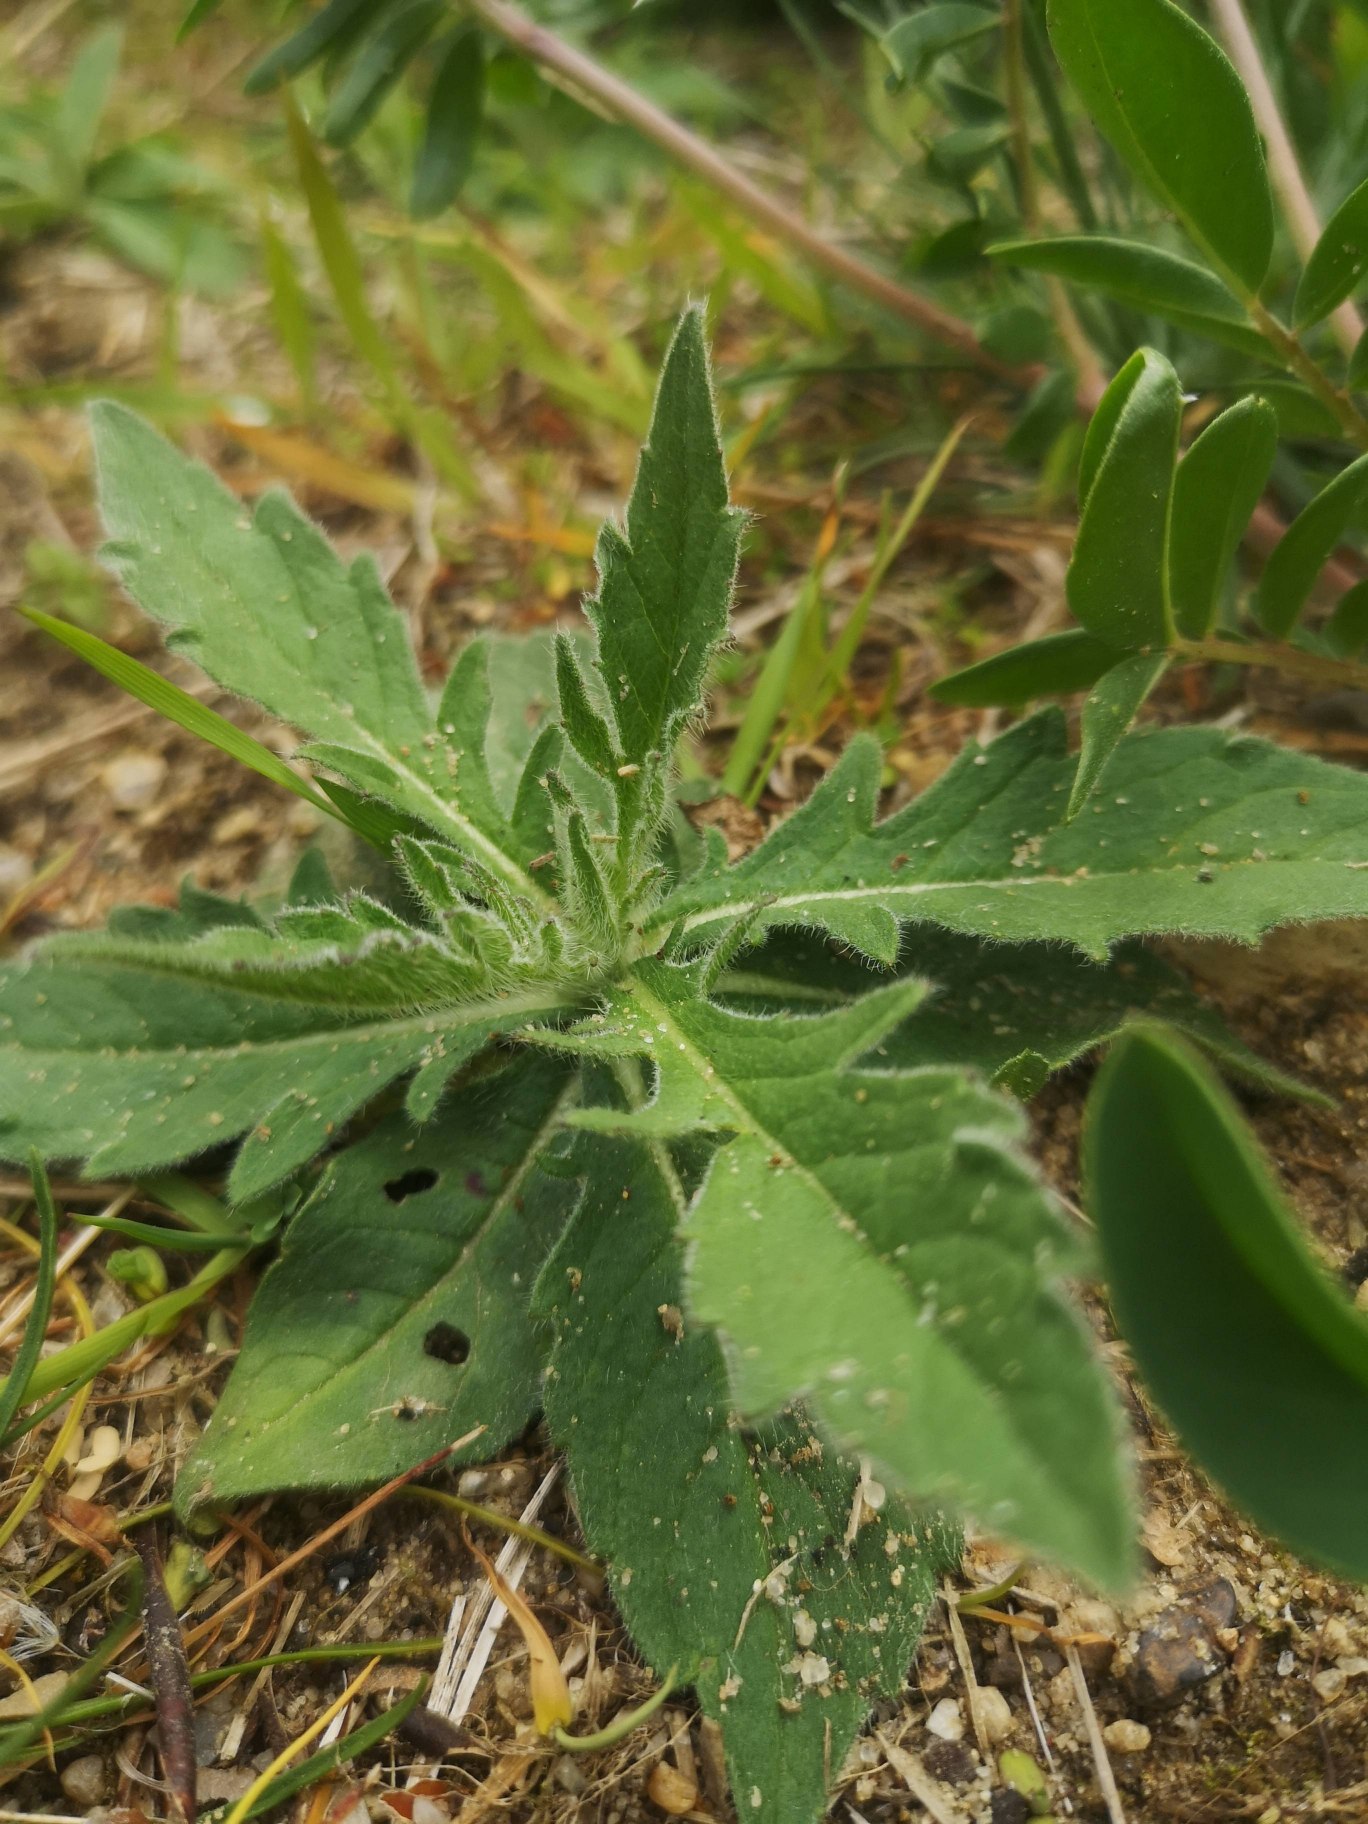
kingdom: Plantae
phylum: Tracheophyta
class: Magnoliopsida
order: Dipsacales
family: Caprifoliaceae
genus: Knautia
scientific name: Knautia arvensis
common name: Blåhat
